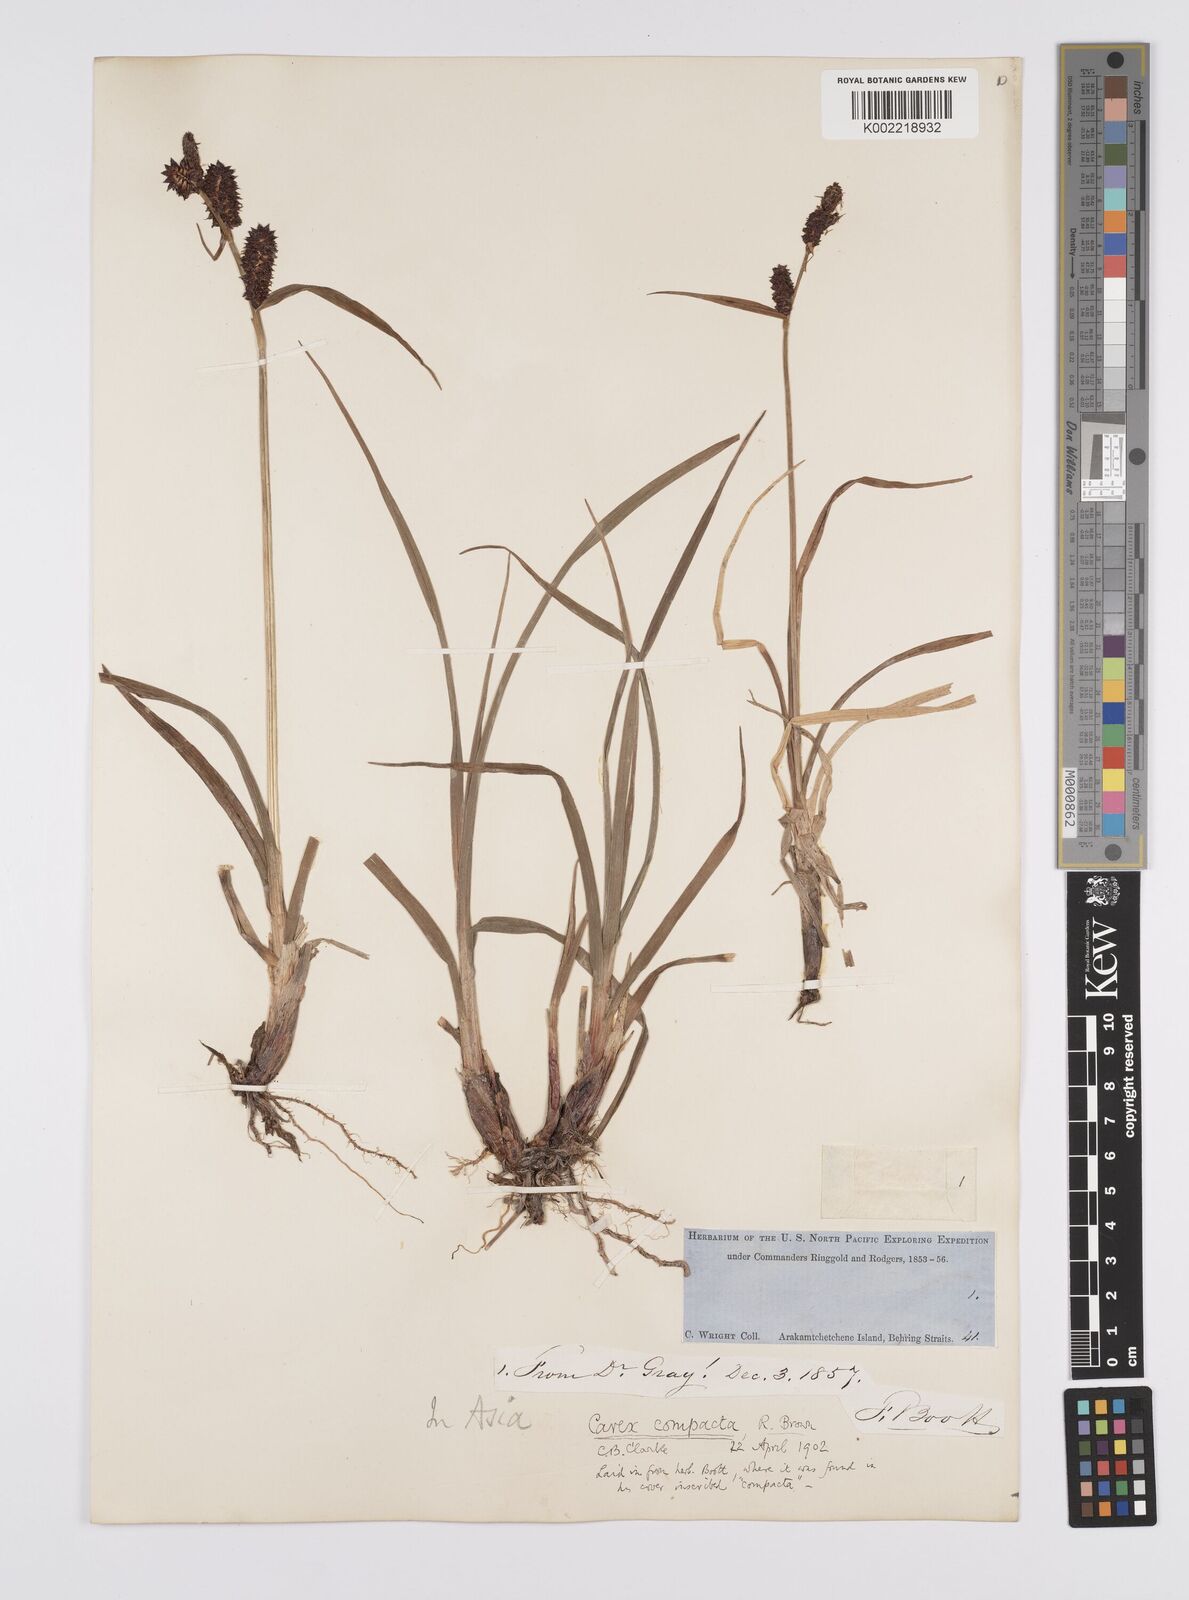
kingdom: Plantae
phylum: Tracheophyta
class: Liliopsida
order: Poales
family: Cyperaceae
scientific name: Cyperaceae
